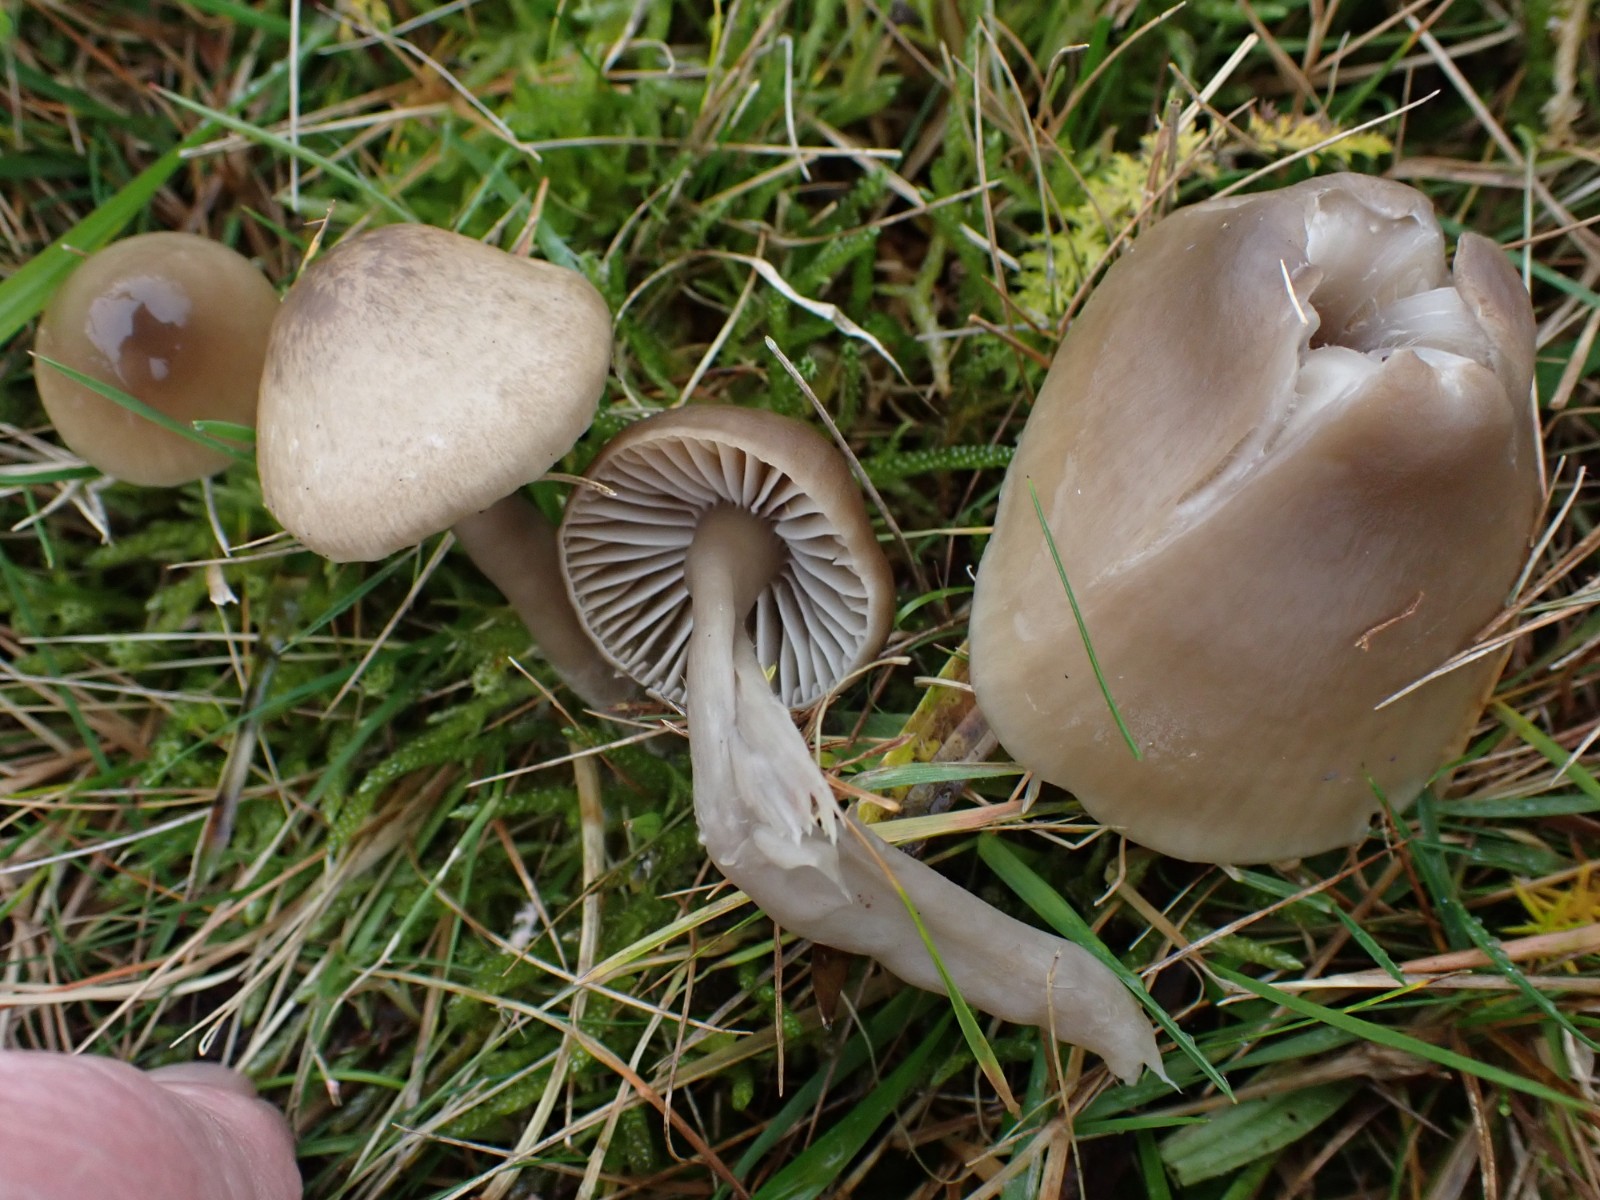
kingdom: Fungi
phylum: Basidiomycota
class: Agaricomycetes
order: Agaricales
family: Hygrophoraceae
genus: Gliophorus
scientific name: Gliophorus irrigatus
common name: slimet vokshat
